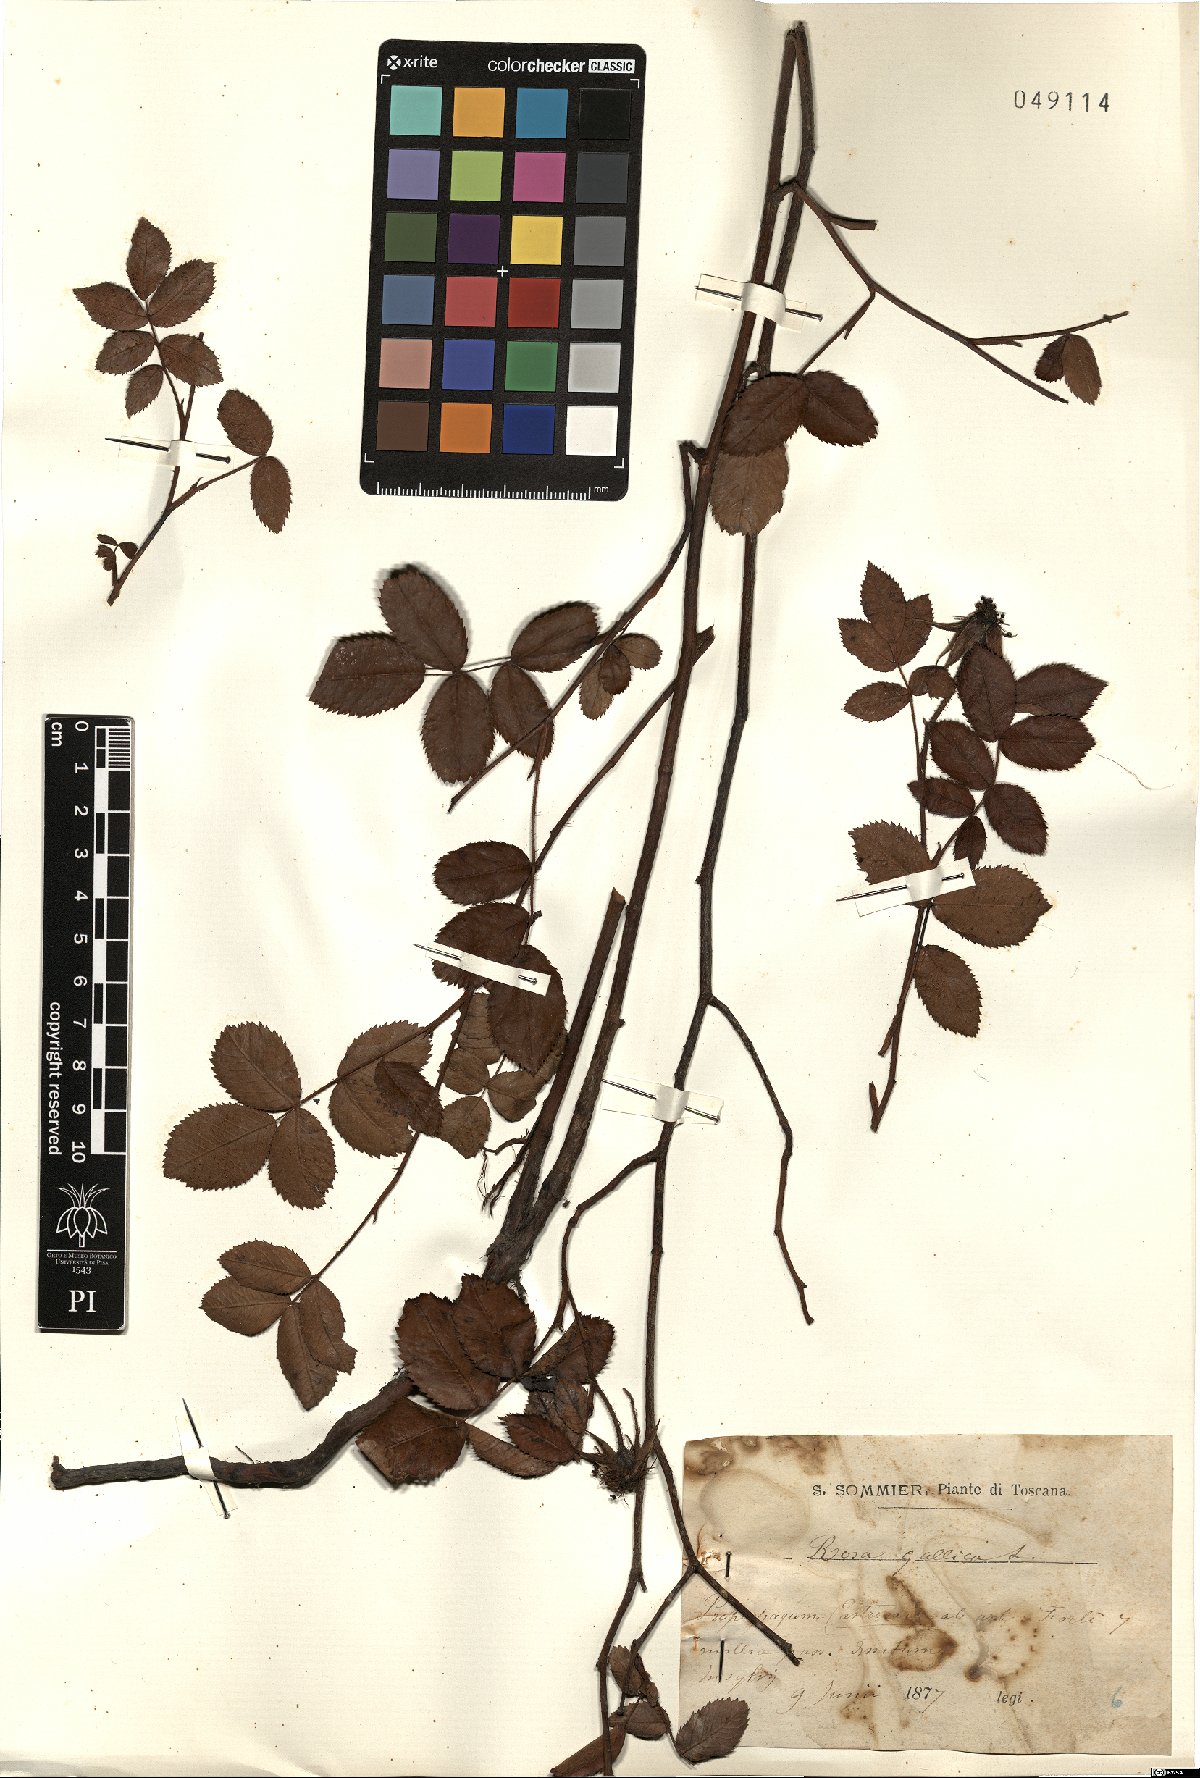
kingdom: Plantae
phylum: Tracheophyta
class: Magnoliopsida
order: Rosales
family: Rosaceae
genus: Rosa
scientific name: Rosa gallica
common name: French rose
